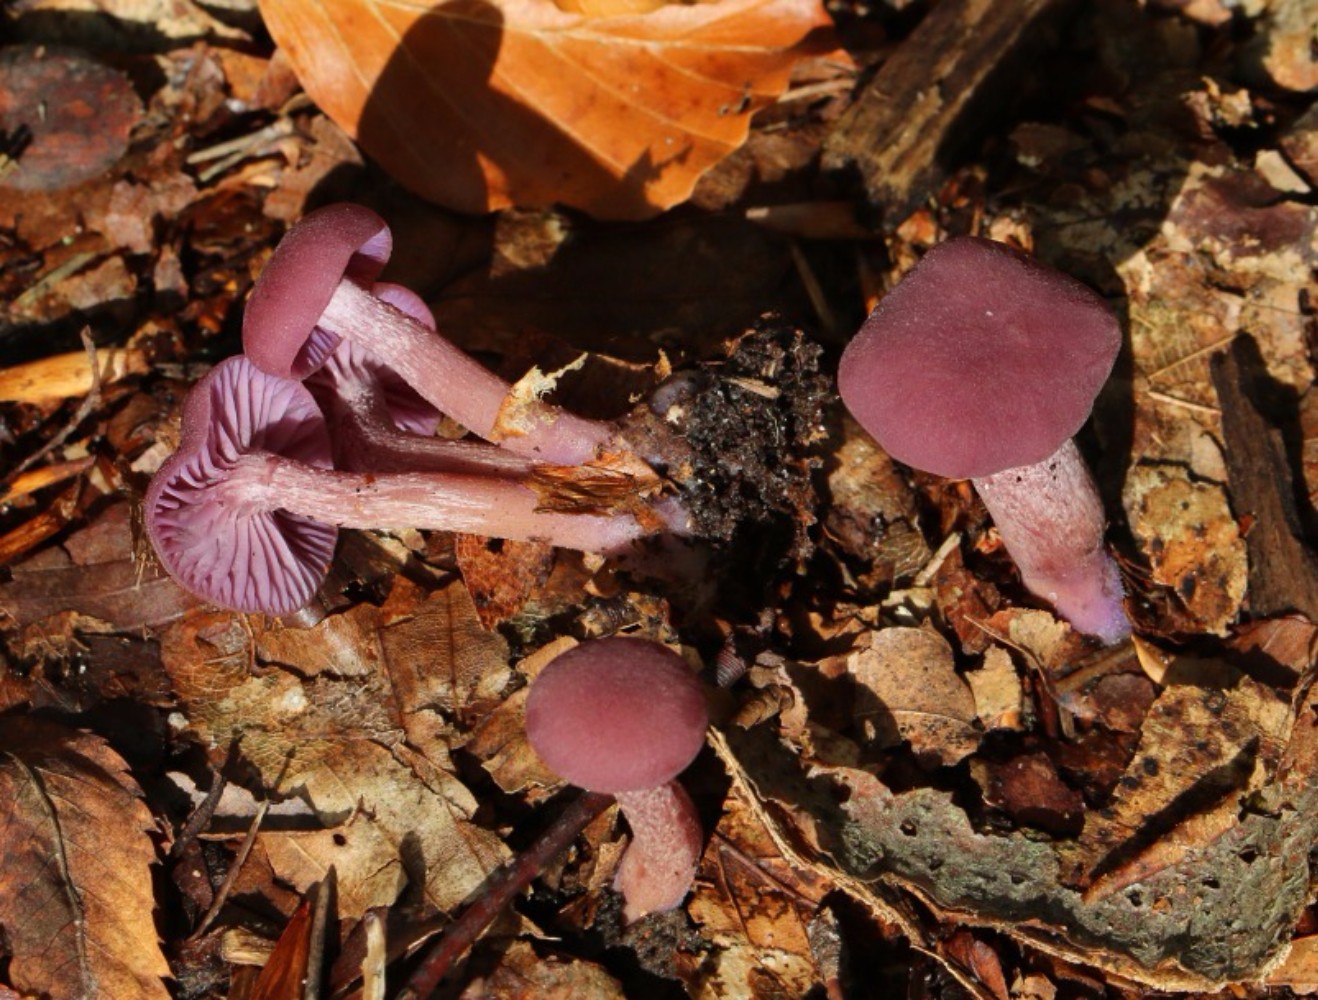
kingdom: Fungi
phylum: Basidiomycota
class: Agaricomycetes
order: Agaricales
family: Hydnangiaceae
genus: Laccaria
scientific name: Laccaria amethystina
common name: violet ametysthat
